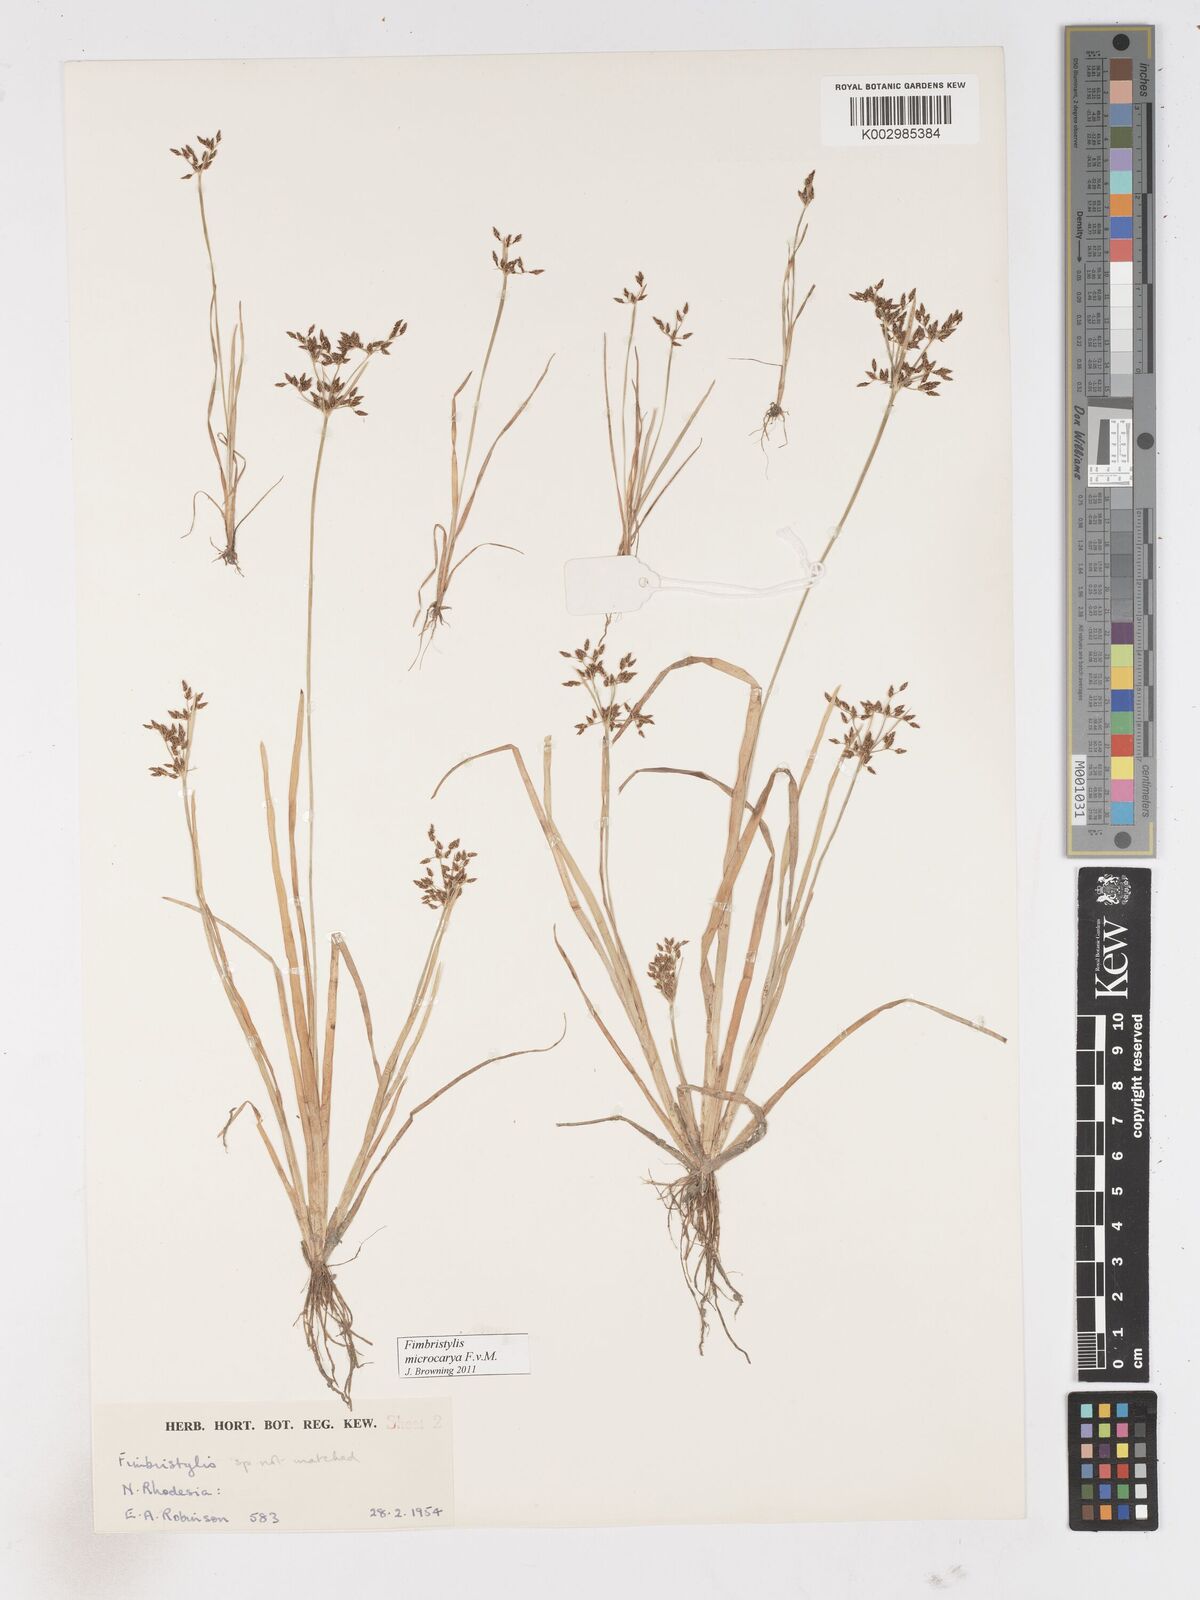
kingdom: Plantae
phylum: Tracheophyta
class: Liliopsida
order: Poales
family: Cyperaceae
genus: Fimbristylis
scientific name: Fimbristylis microcarya
